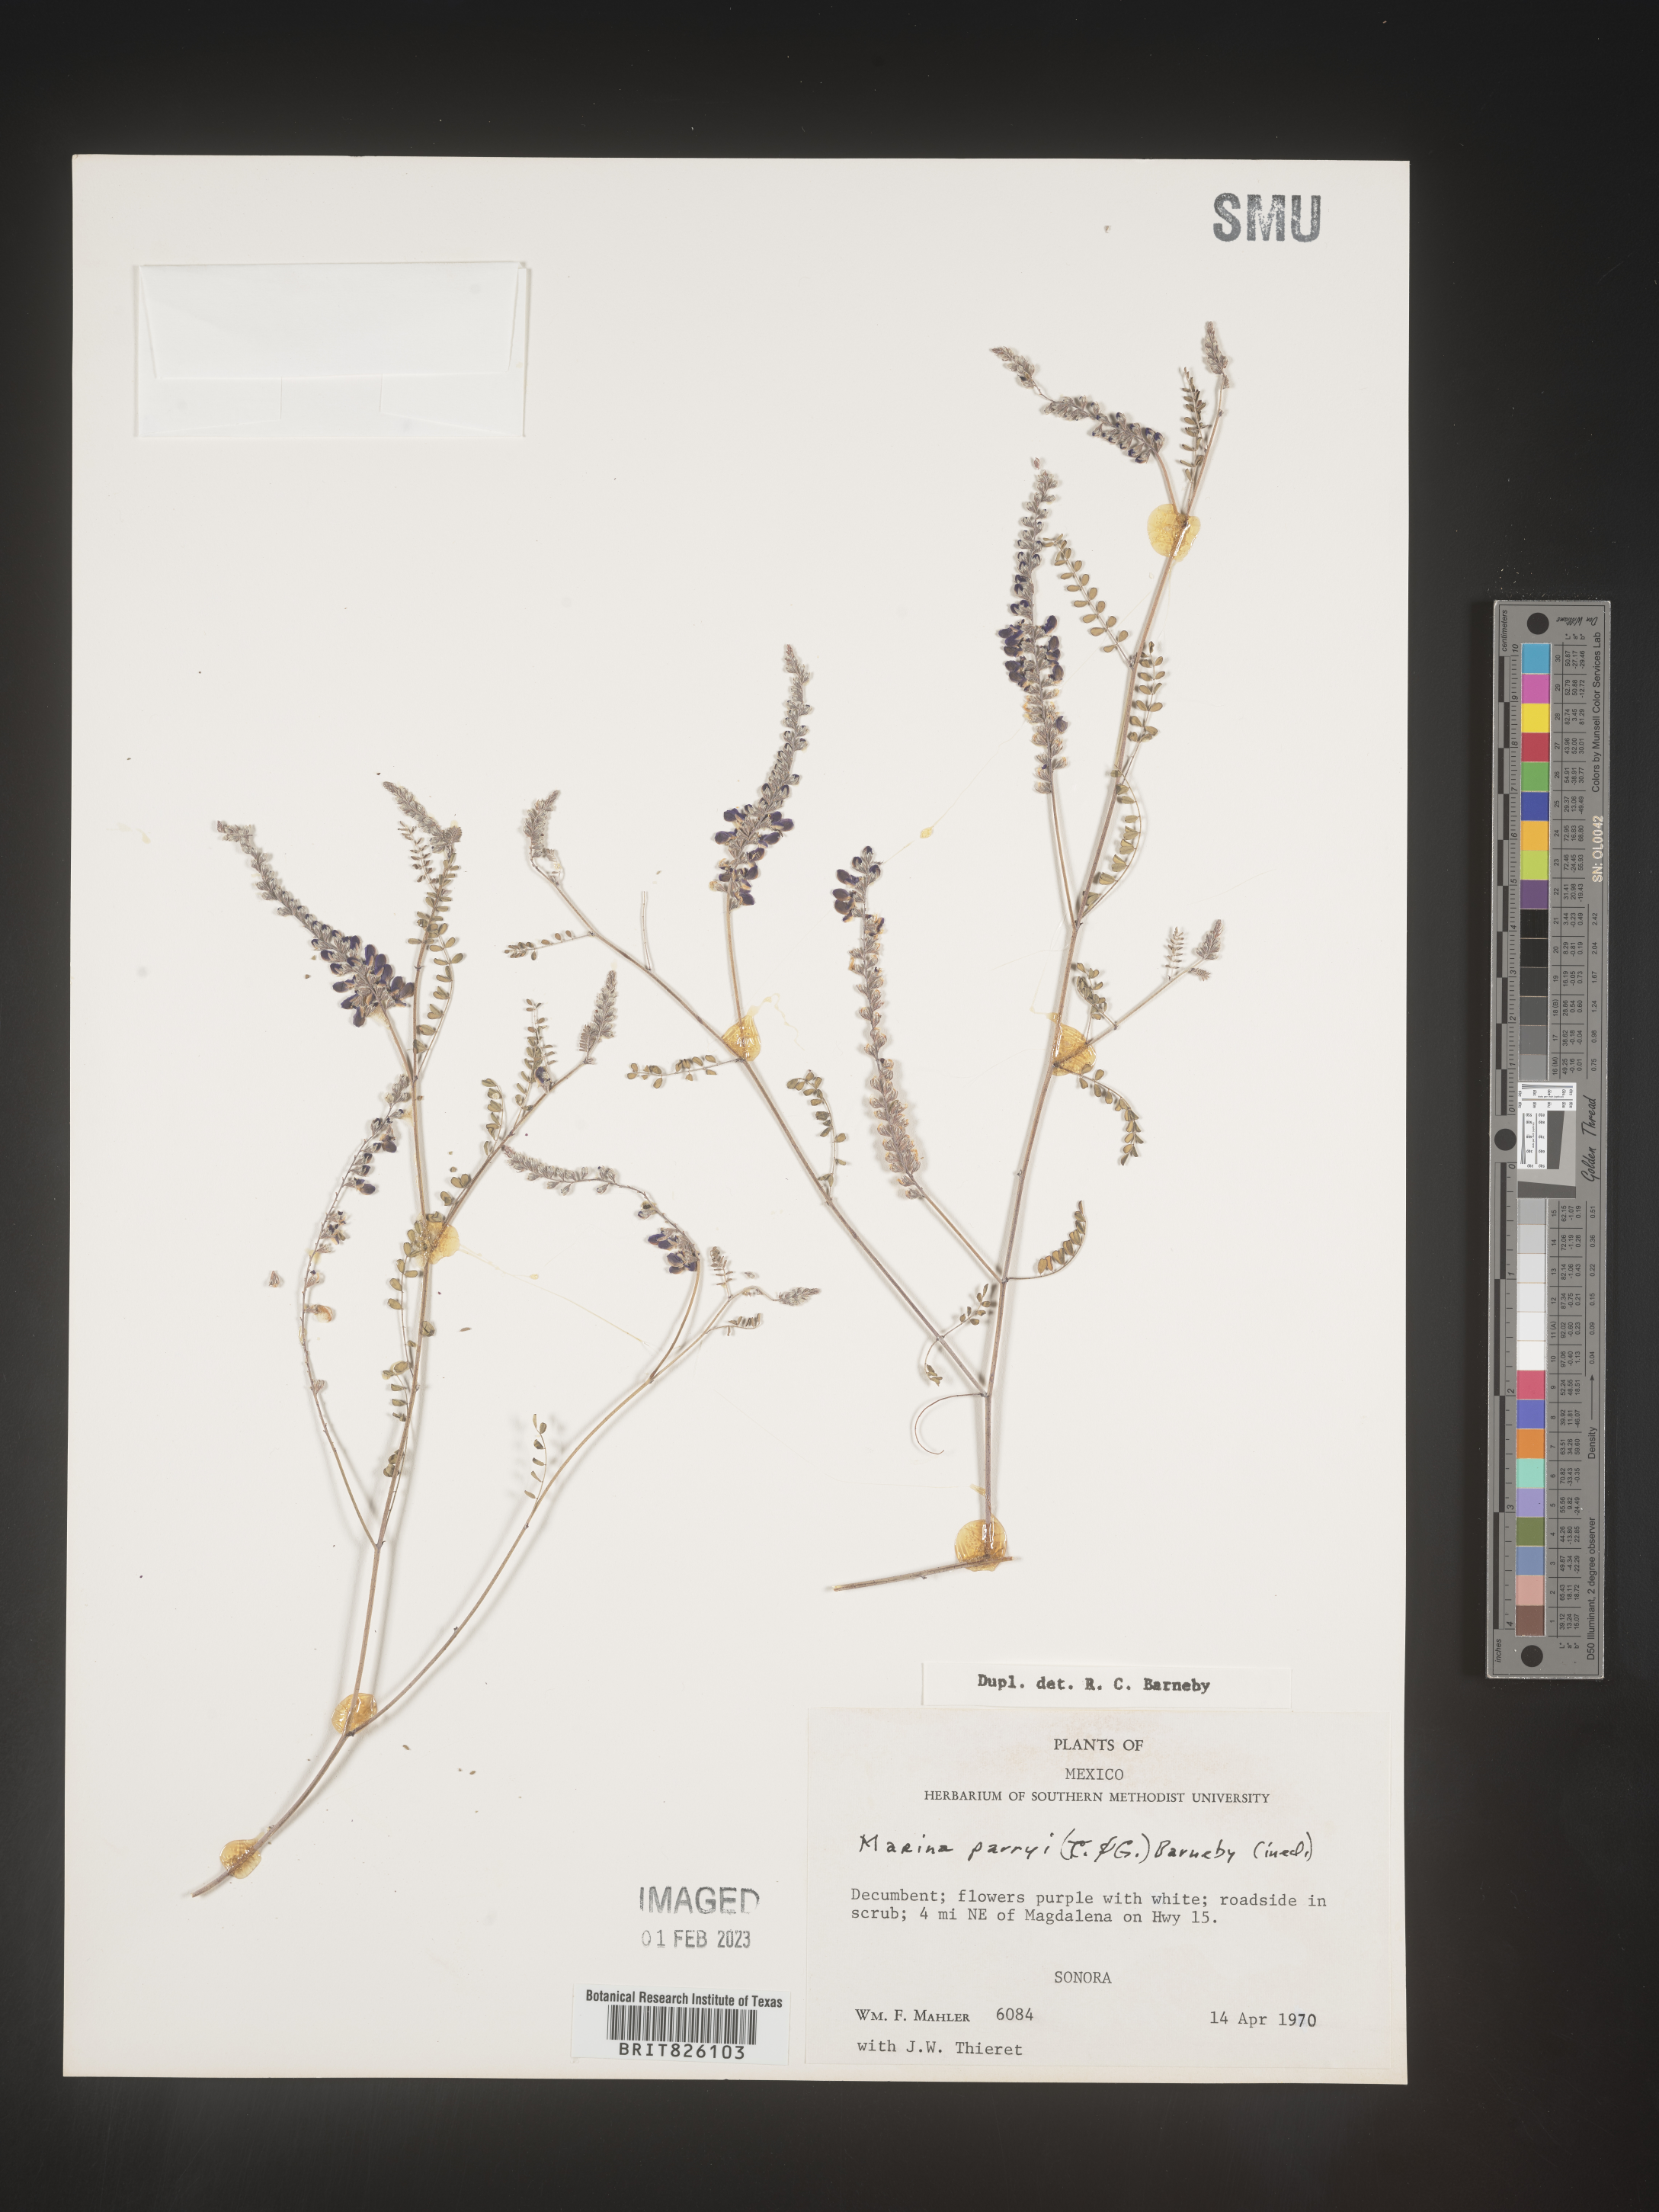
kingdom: Plantae
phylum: Tracheophyta
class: Magnoliopsida
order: Fabales
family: Fabaceae
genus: Marina
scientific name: Marina
